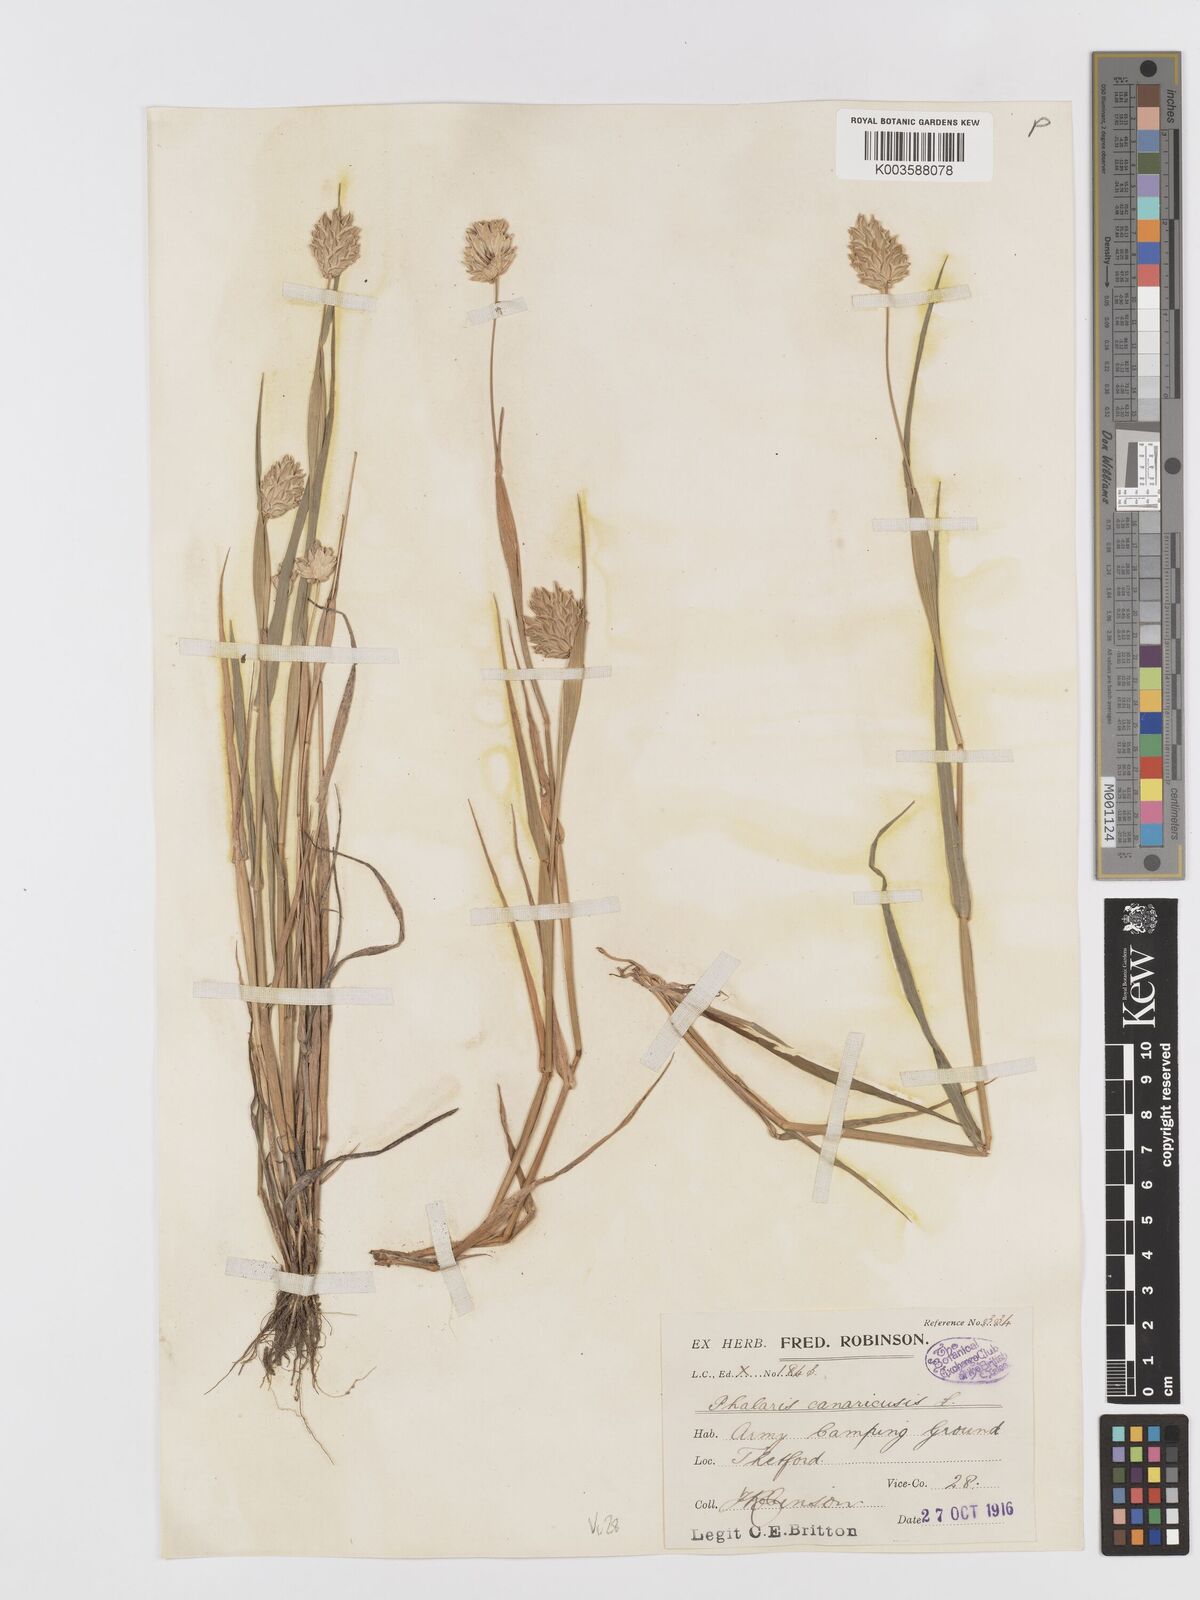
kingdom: Plantae
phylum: Tracheophyta
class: Liliopsida
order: Poales
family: Poaceae
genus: Phalaris
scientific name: Phalaris canariensis
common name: Annual canarygrass
